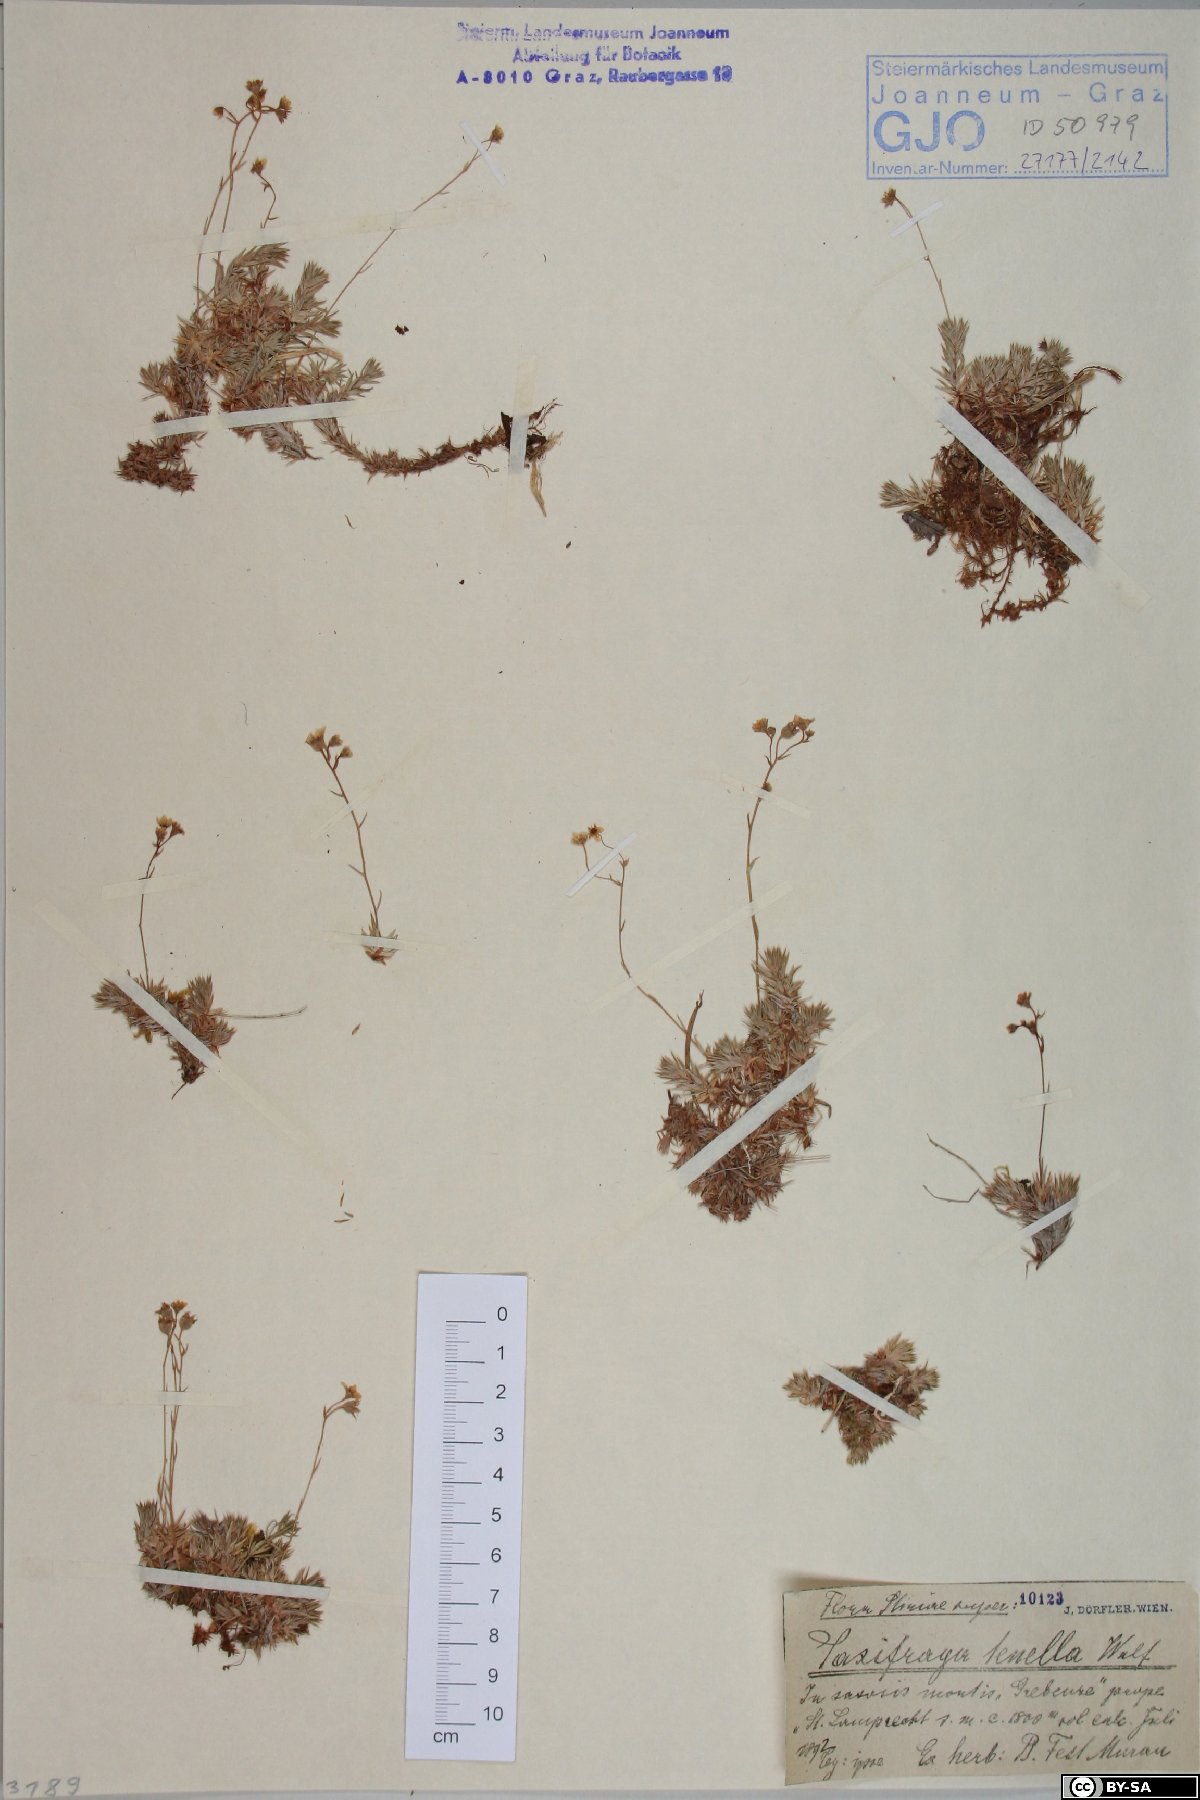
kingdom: Plantae
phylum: Tracheophyta
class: Magnoliopsida
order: Saxifragales
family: Saxifragaceae
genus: Saxifraga
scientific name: Saxifraga tenella
